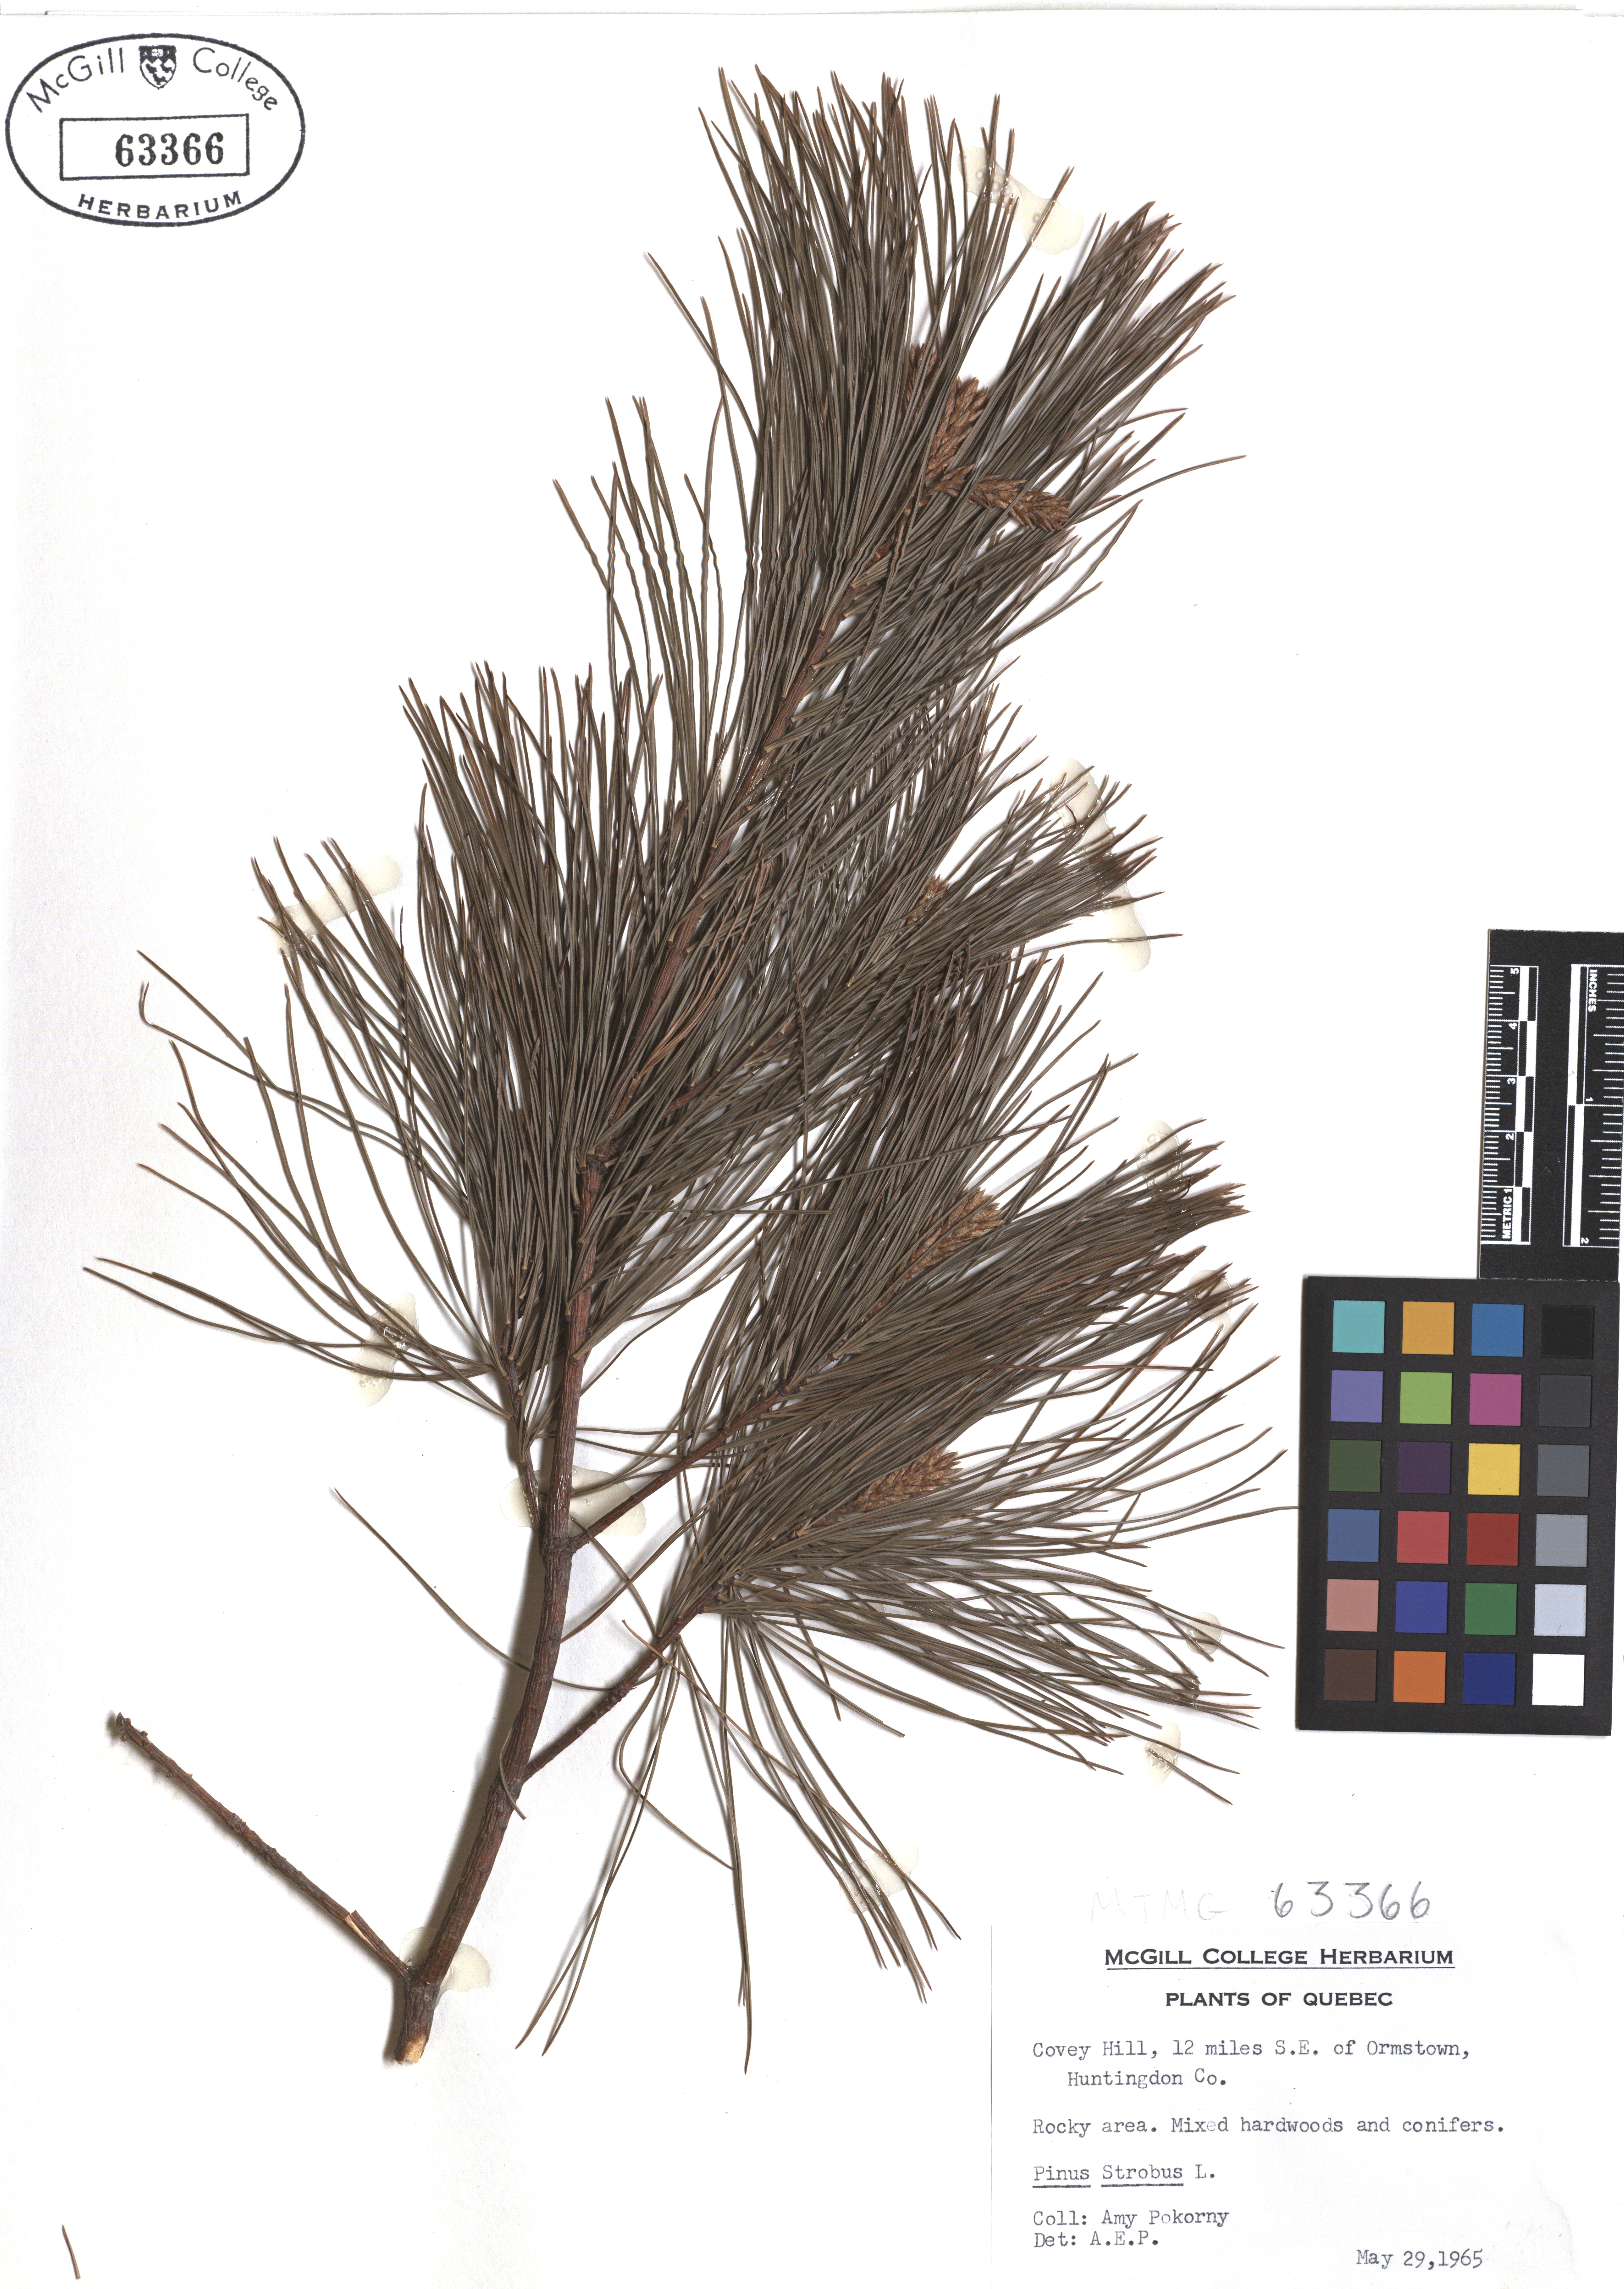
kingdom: Plantae
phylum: Tracheophyta
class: Pinopsida
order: Pinales
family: Pinaceae
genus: Pinus
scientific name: Pinus strobus
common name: Weymouth pine
